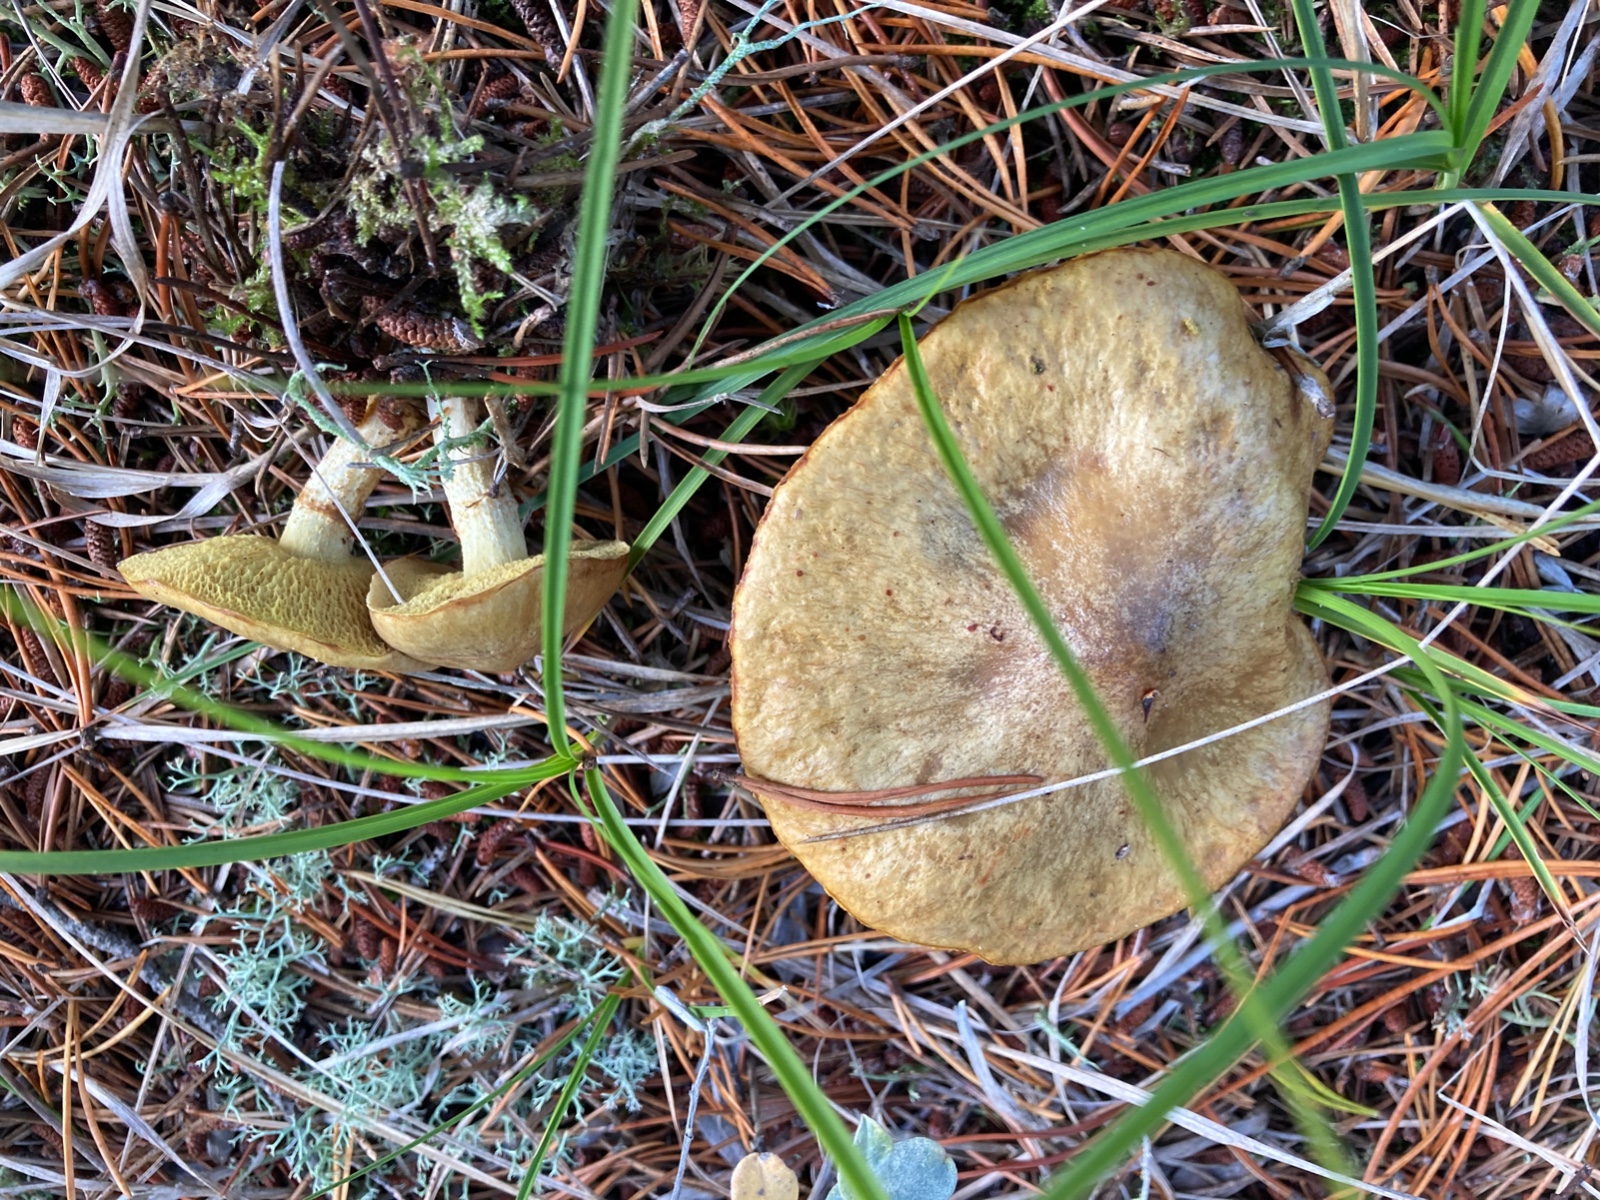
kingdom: Fungi
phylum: Basidiomycota
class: Agaricomycetes
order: Boletales
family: Suillaceae
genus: Suillus
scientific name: Suillus flavidus
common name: mose-slimrørhat
